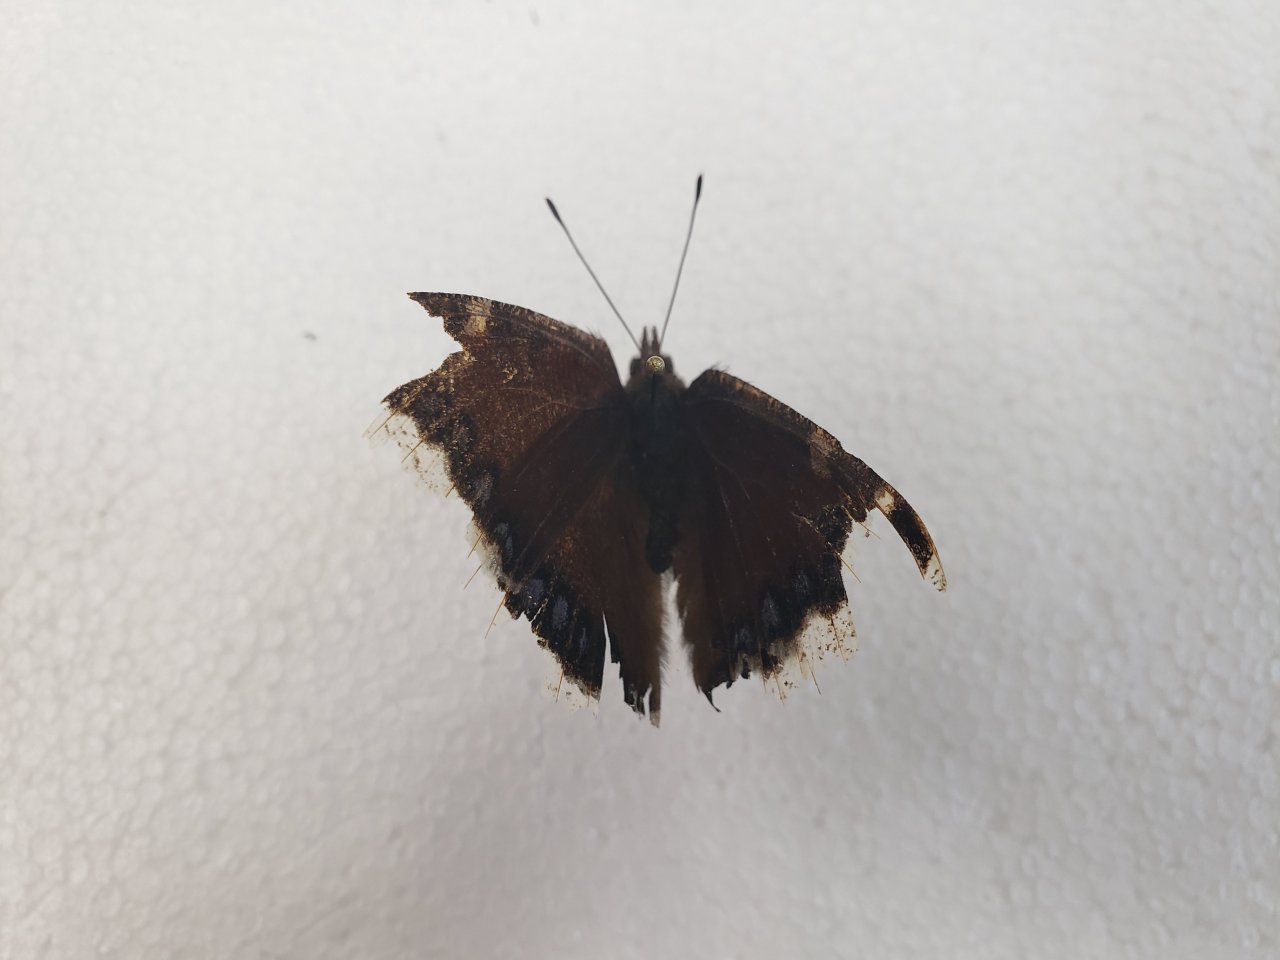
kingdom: Animalia
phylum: Arthropoda
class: Insecta
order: Lepidoptera
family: Nymphalidae
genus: Nymphalis
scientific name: Nymphalis antiopa
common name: Mourning Cloak
